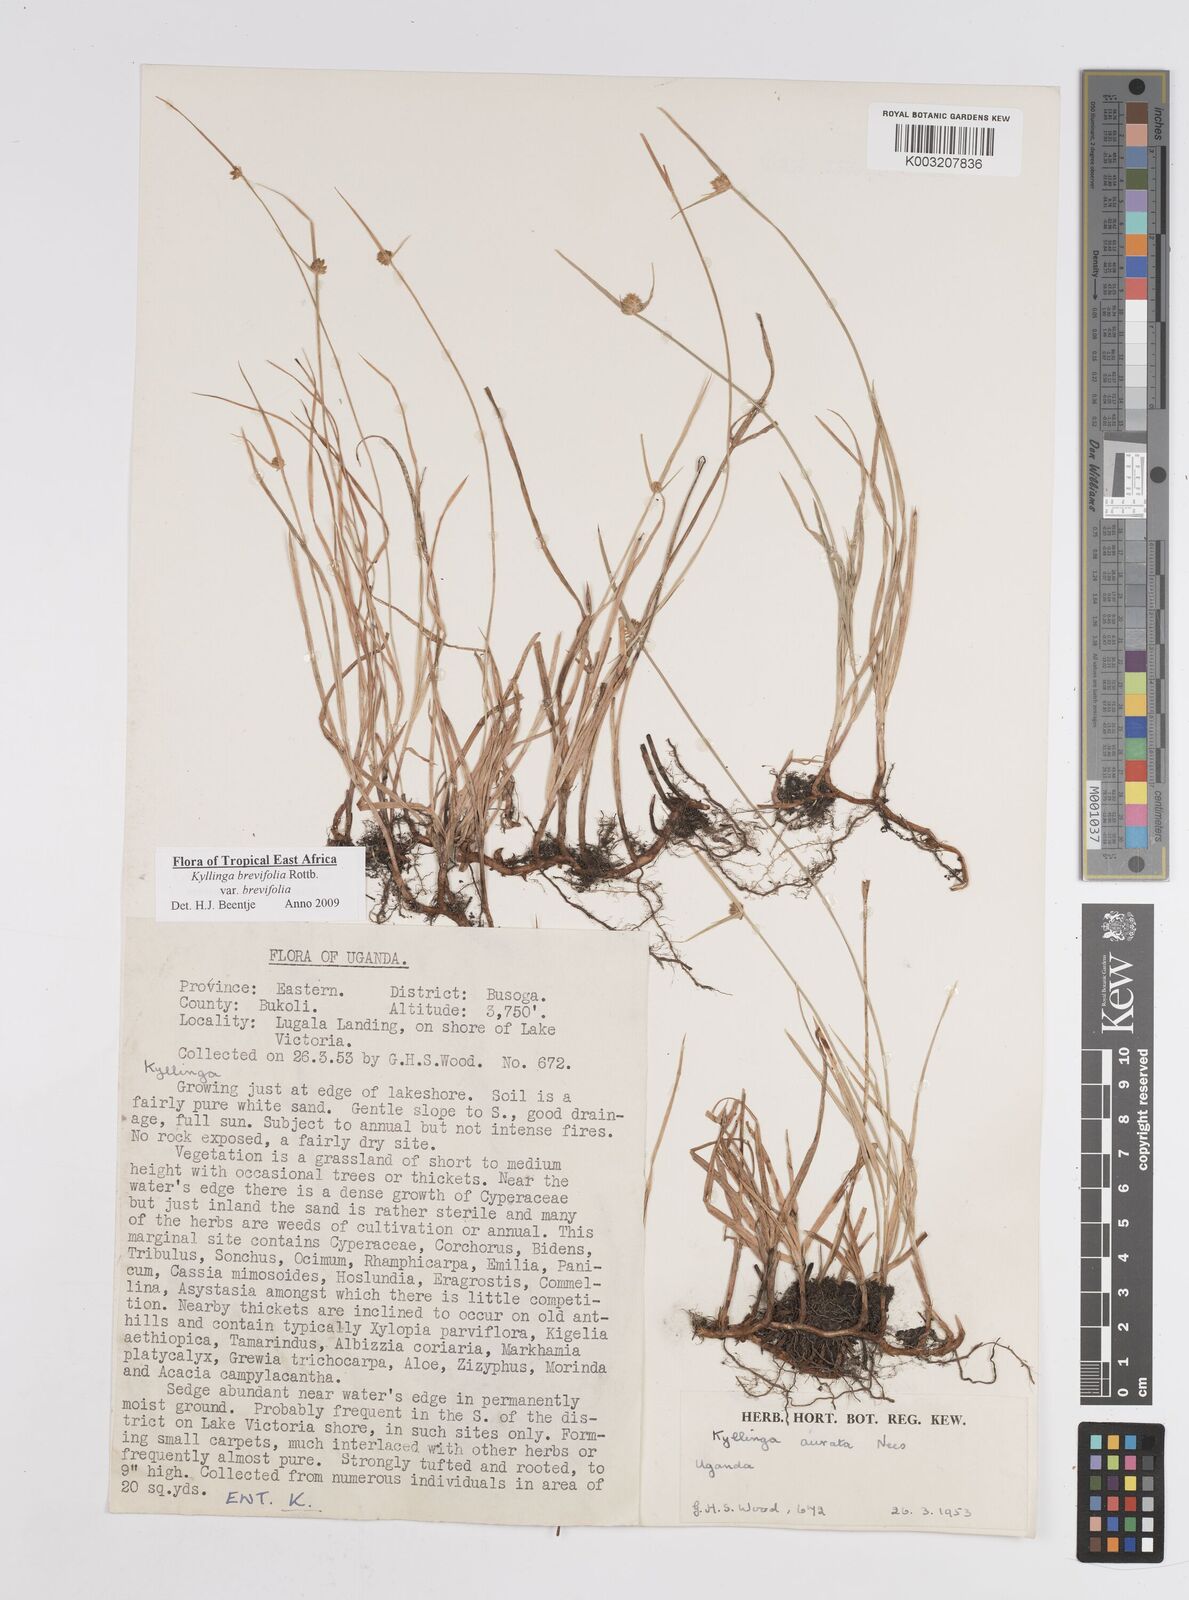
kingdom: Plantae
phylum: Tracheophyta
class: Liliopsida
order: Poales
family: Cyperaceae
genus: Cyperus
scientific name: Cyperus erectus
